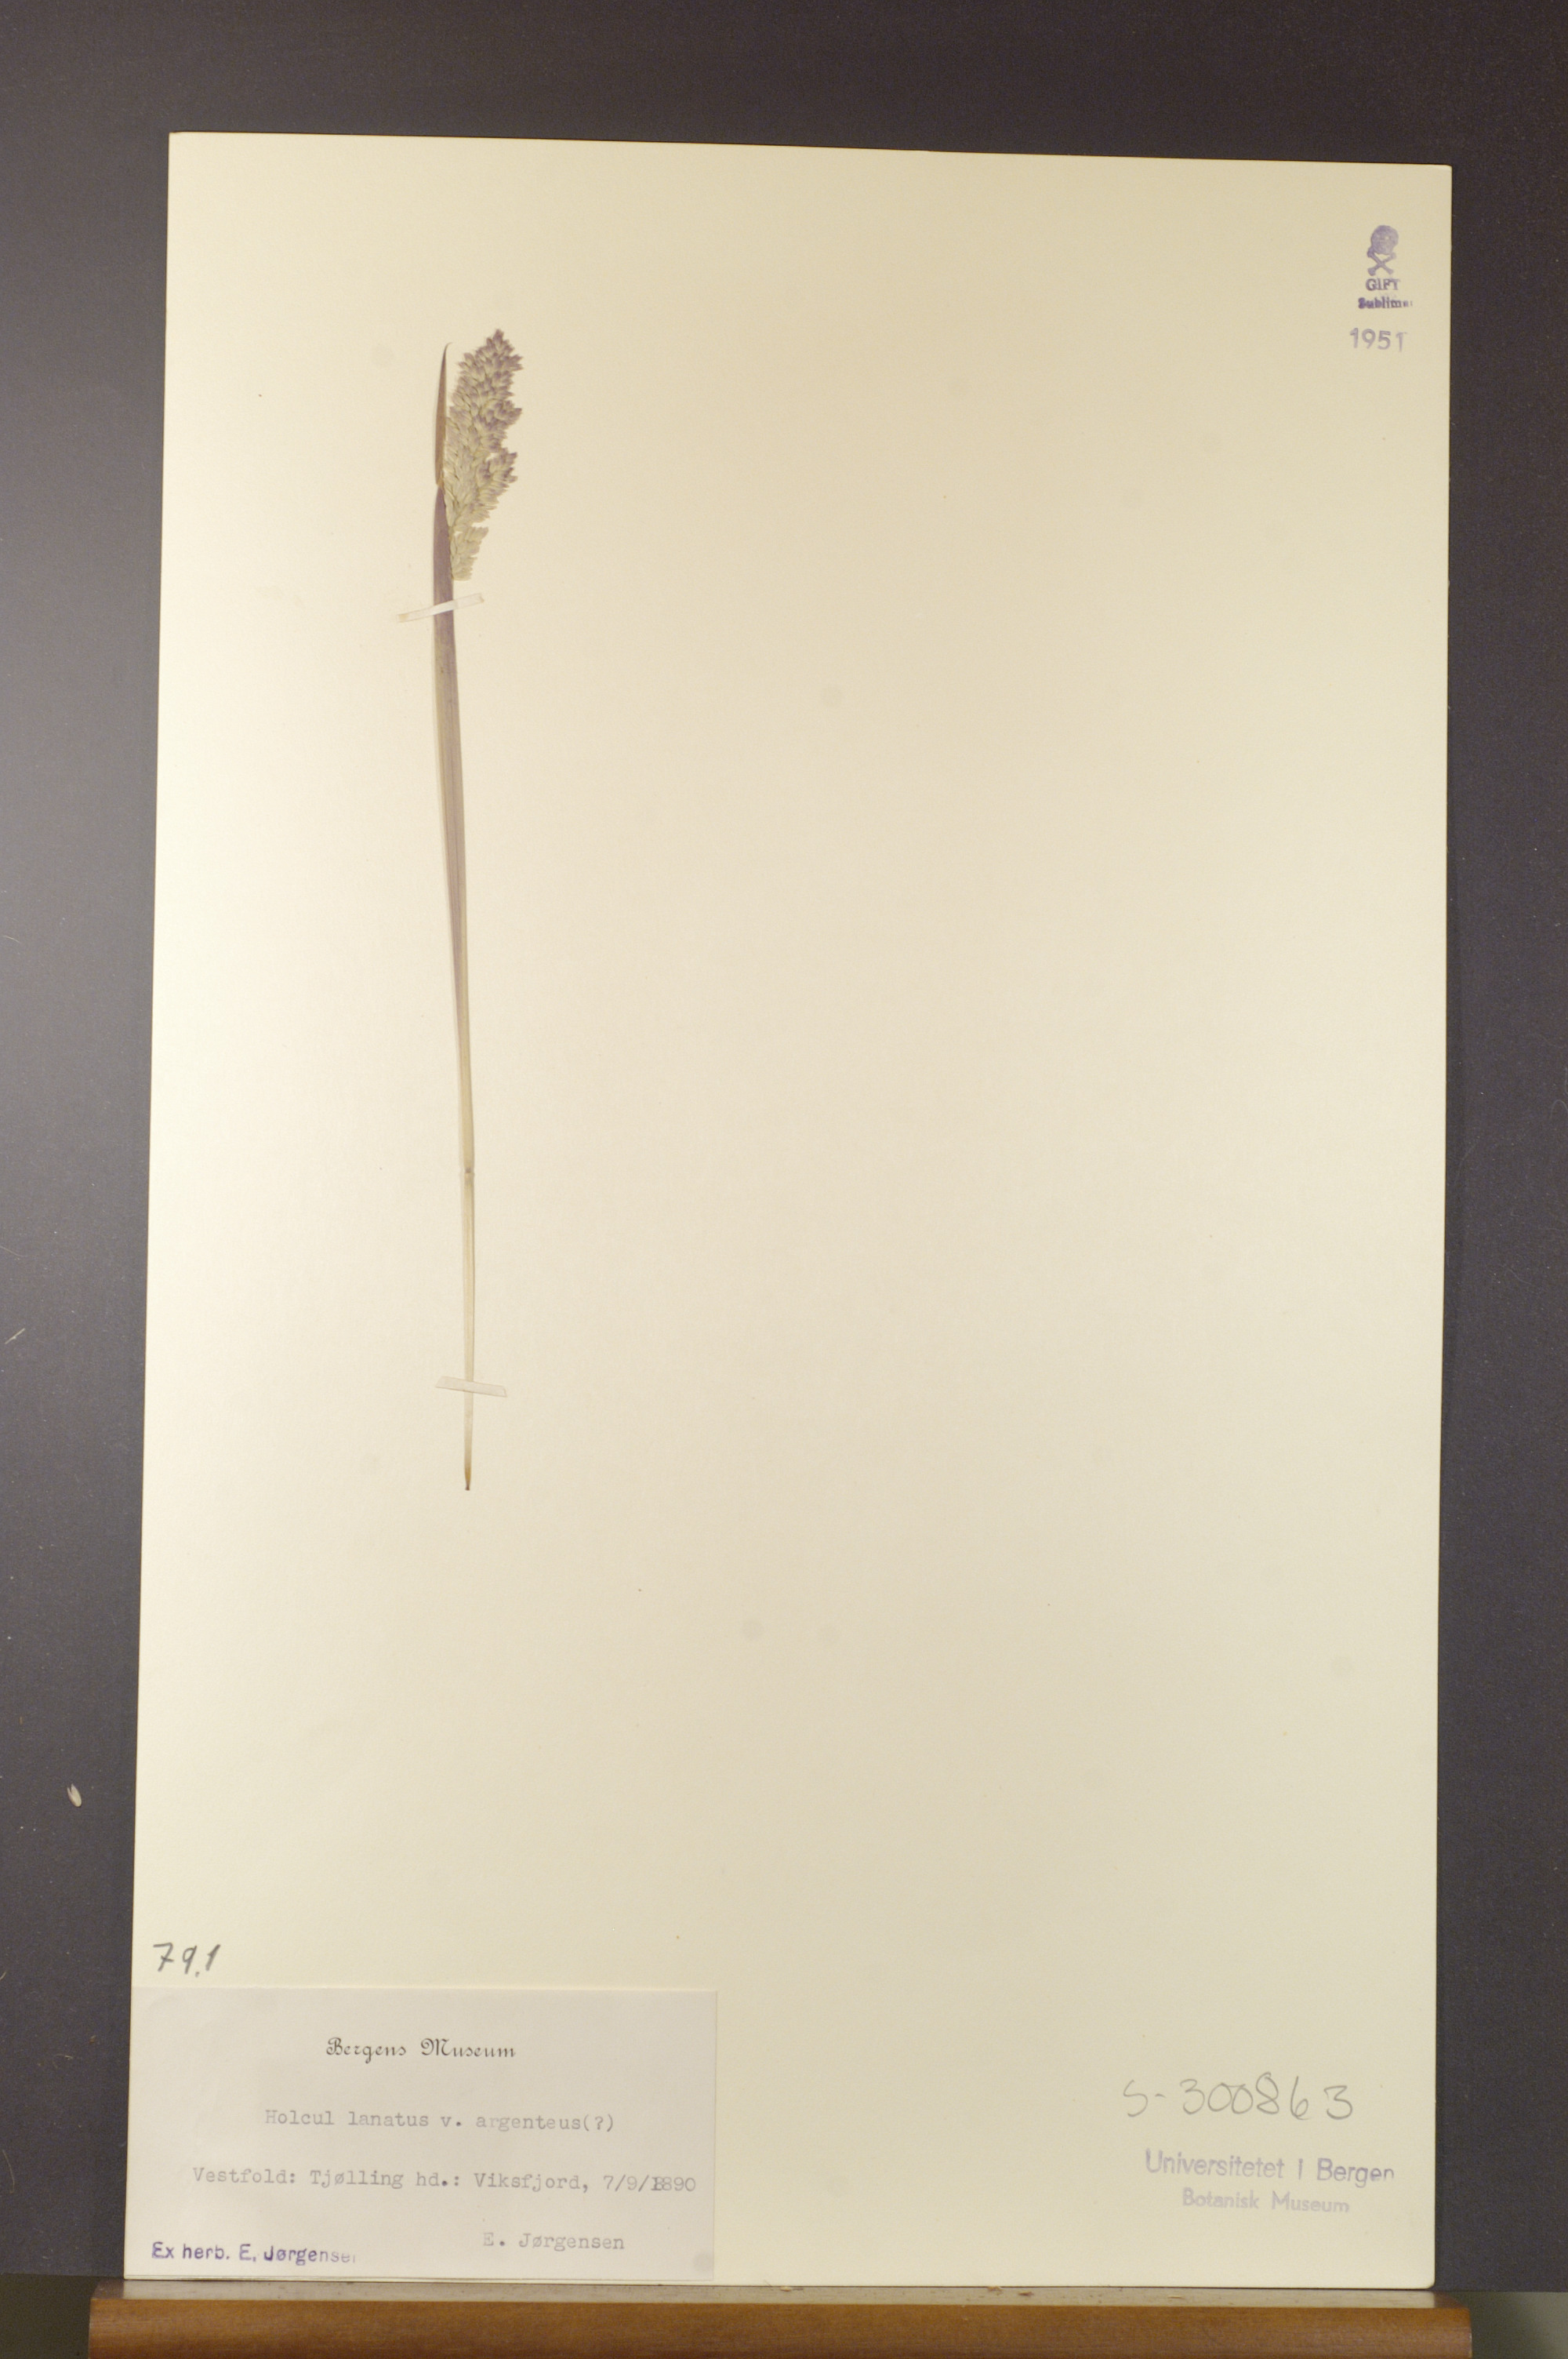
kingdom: Plantae
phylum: Tracheophyta
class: Liliopsida
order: Poales
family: Poaceae
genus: Holcus
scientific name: Holcus lanatus
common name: Yorkshire-fog
